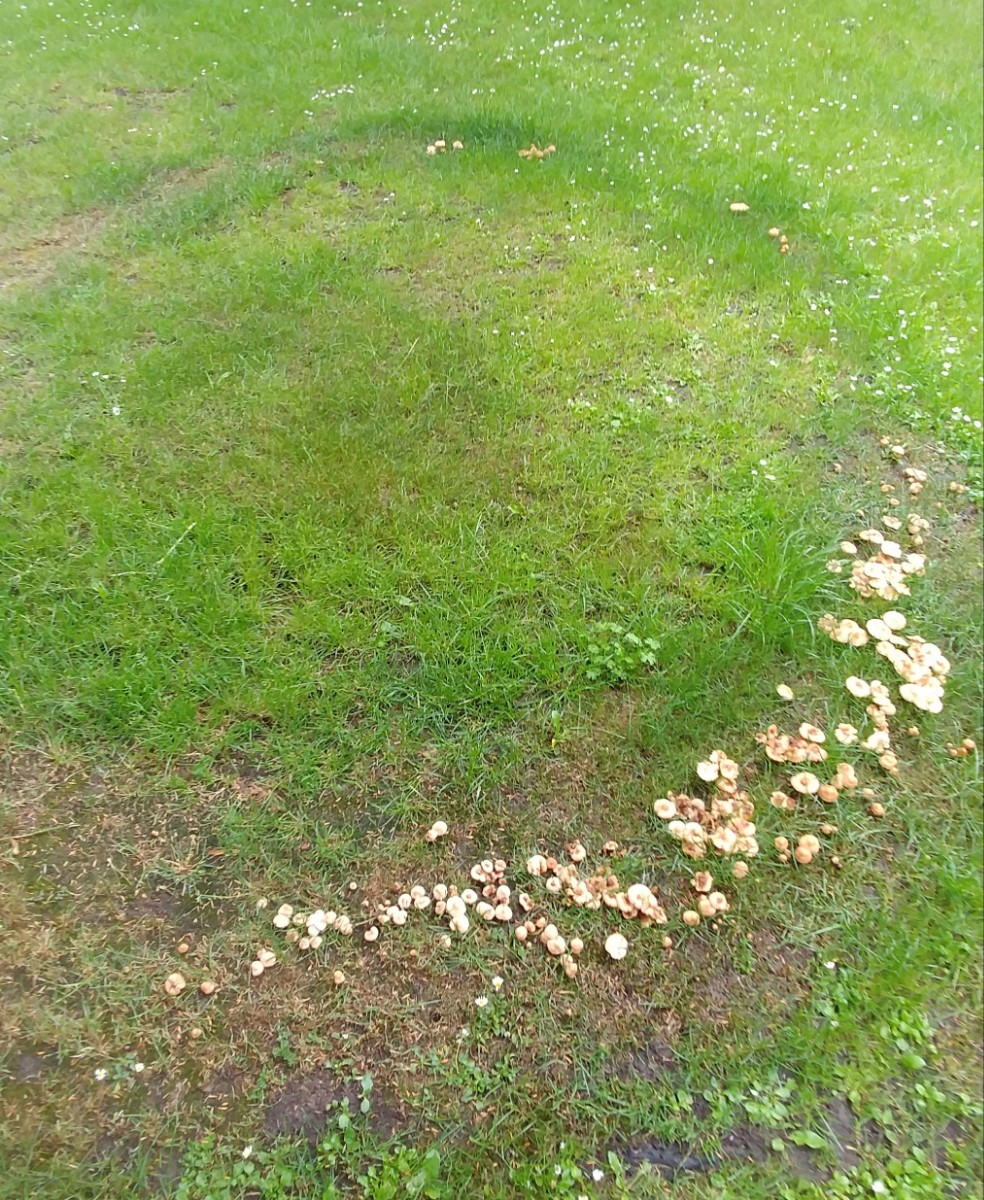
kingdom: Fungi
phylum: Basidiomycota
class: Agaricomycetes
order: Agaricales
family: Marasmiaceae
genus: Marasmius
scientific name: Marasmius oreades
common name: elledans-bruskhat
